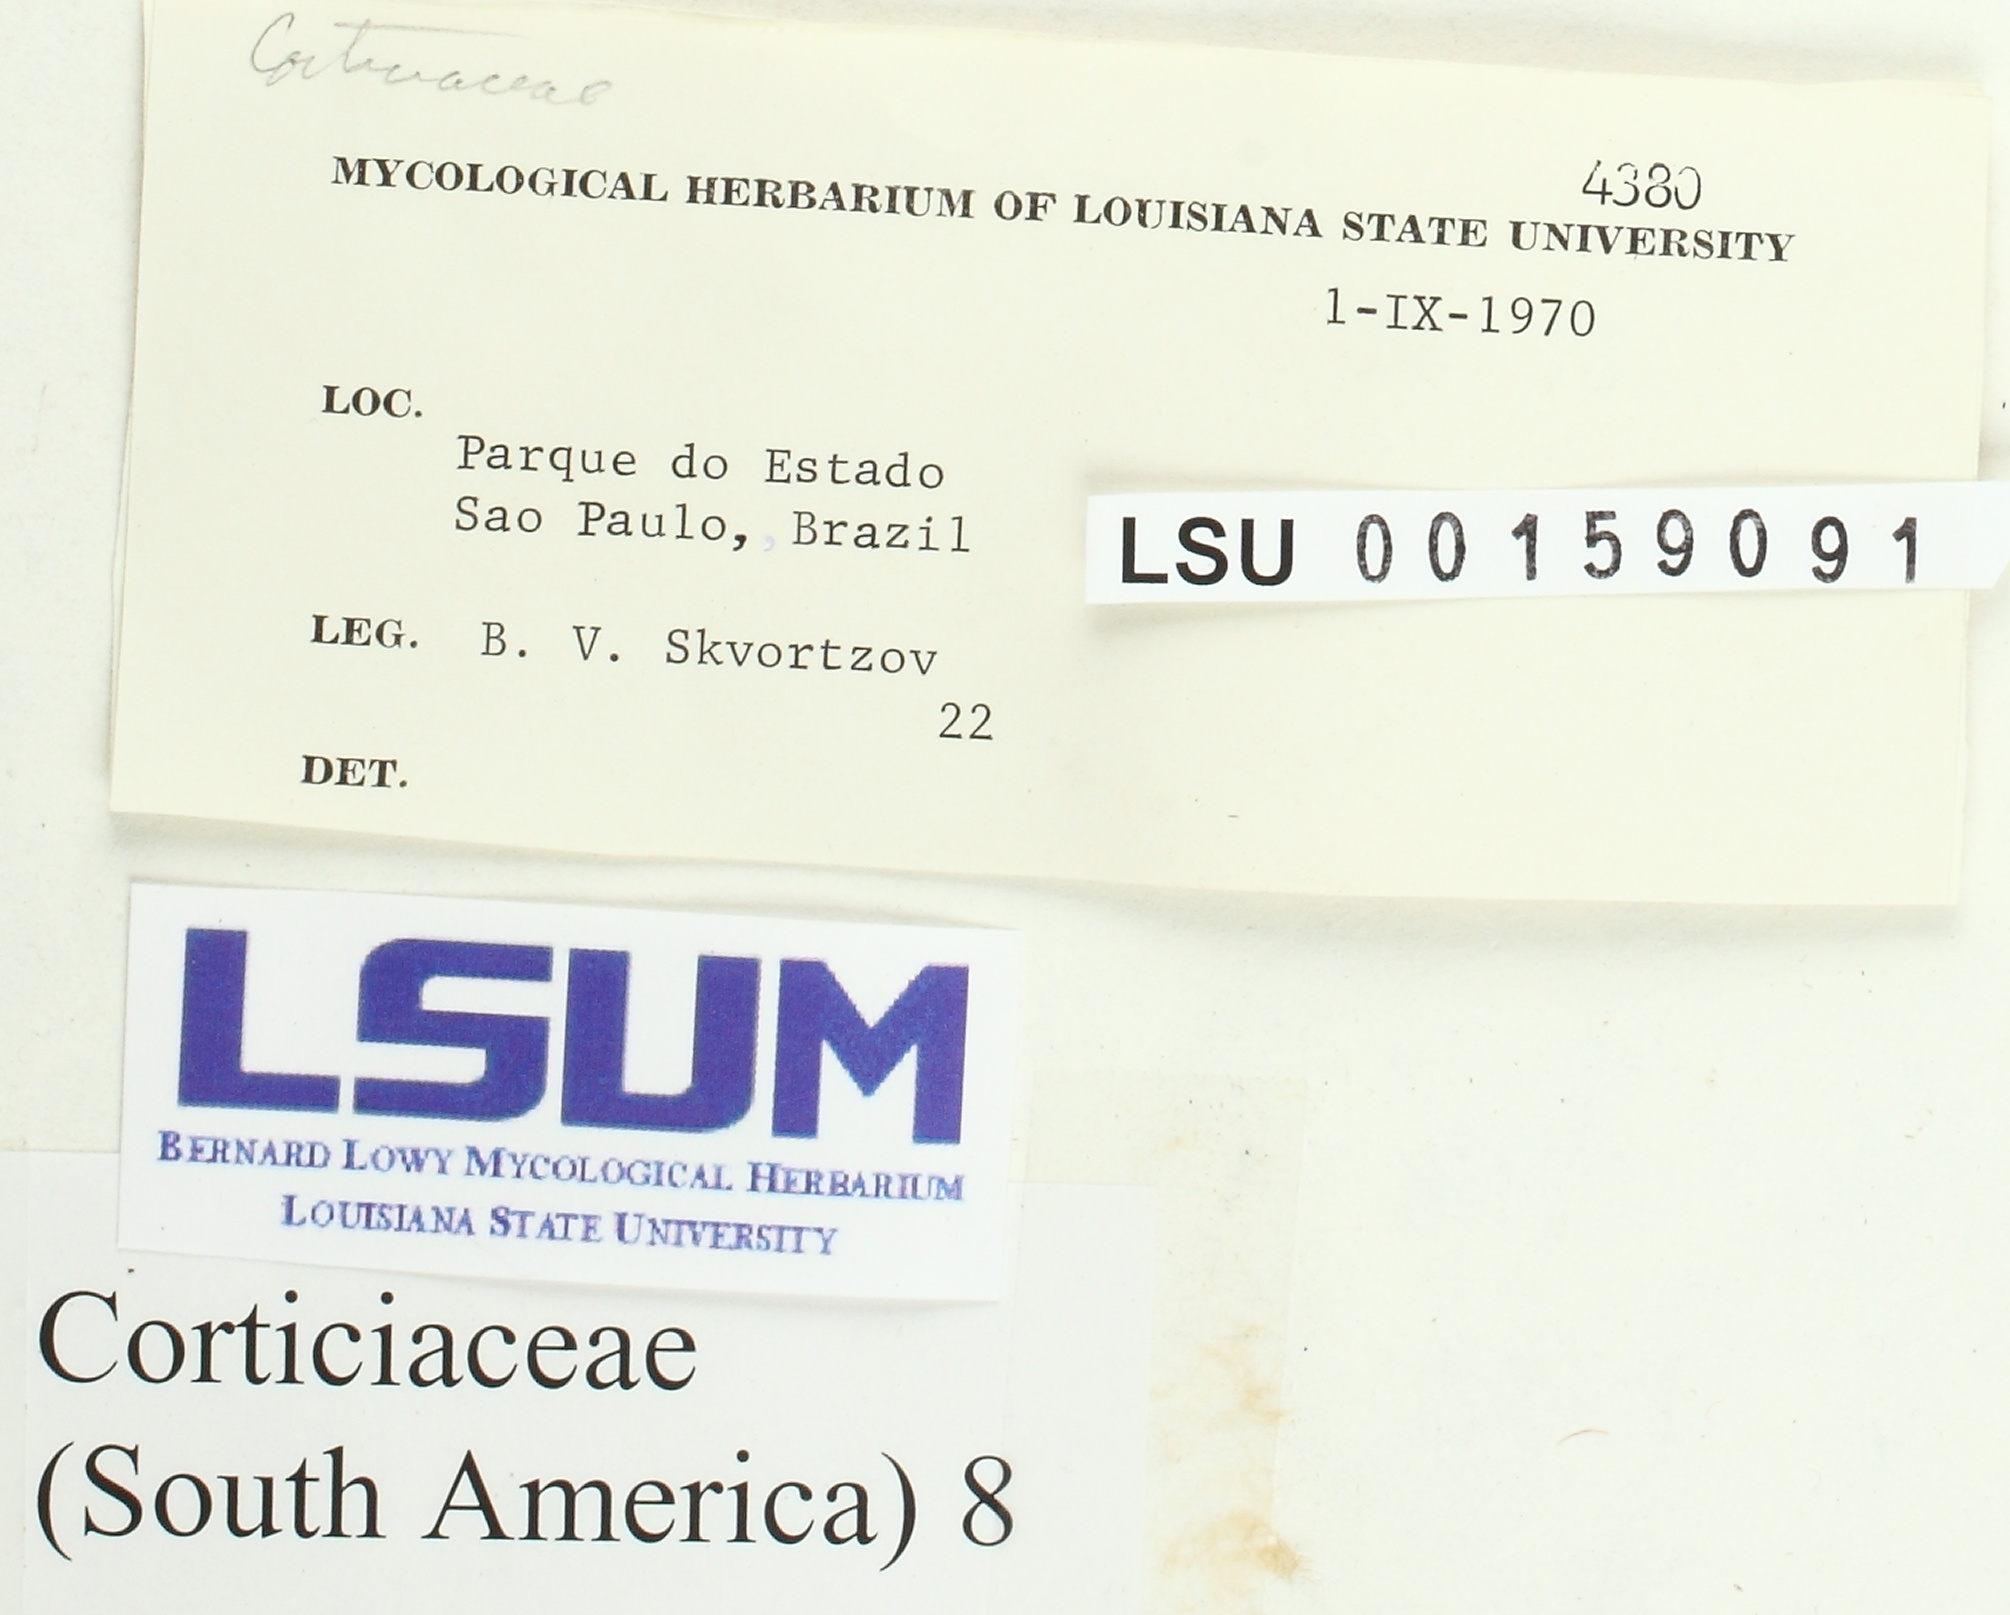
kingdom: Fungi
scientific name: Fungi
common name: Fungi
